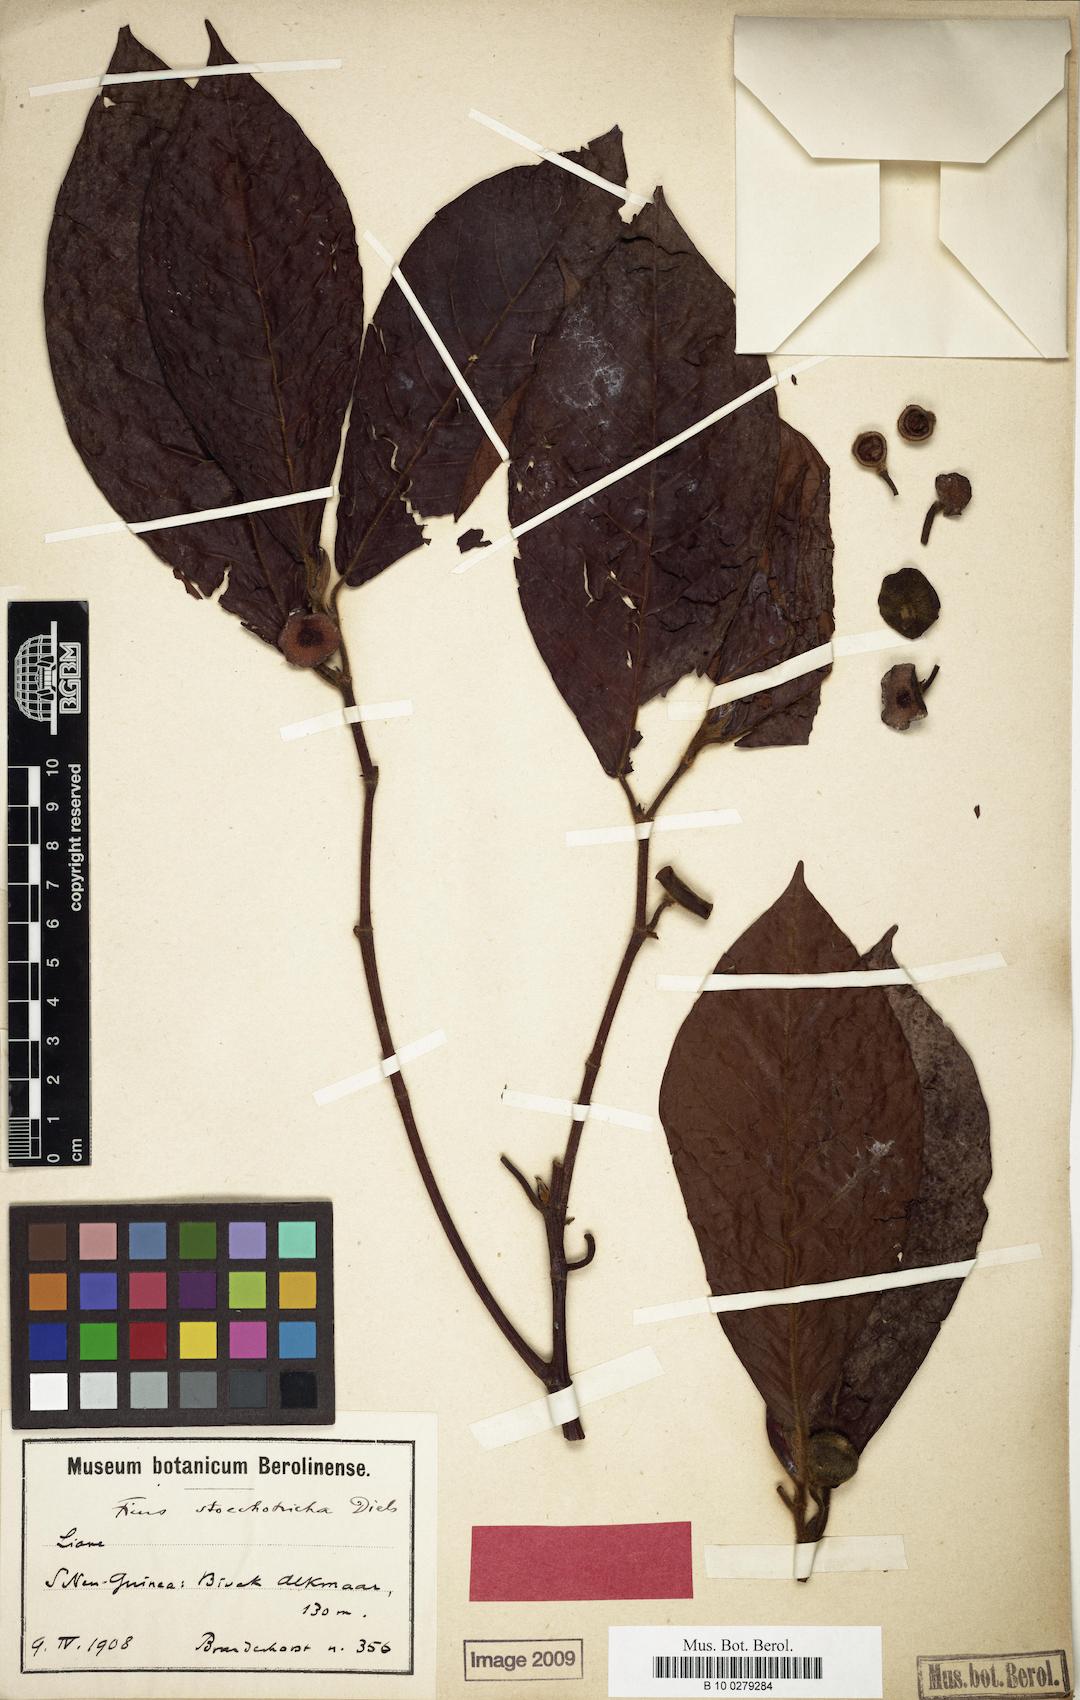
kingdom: Plantae
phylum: Tracheophyta
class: Magnoliopsida
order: Rosales
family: Moraceae
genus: Ficus
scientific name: Ficus subcuneata
